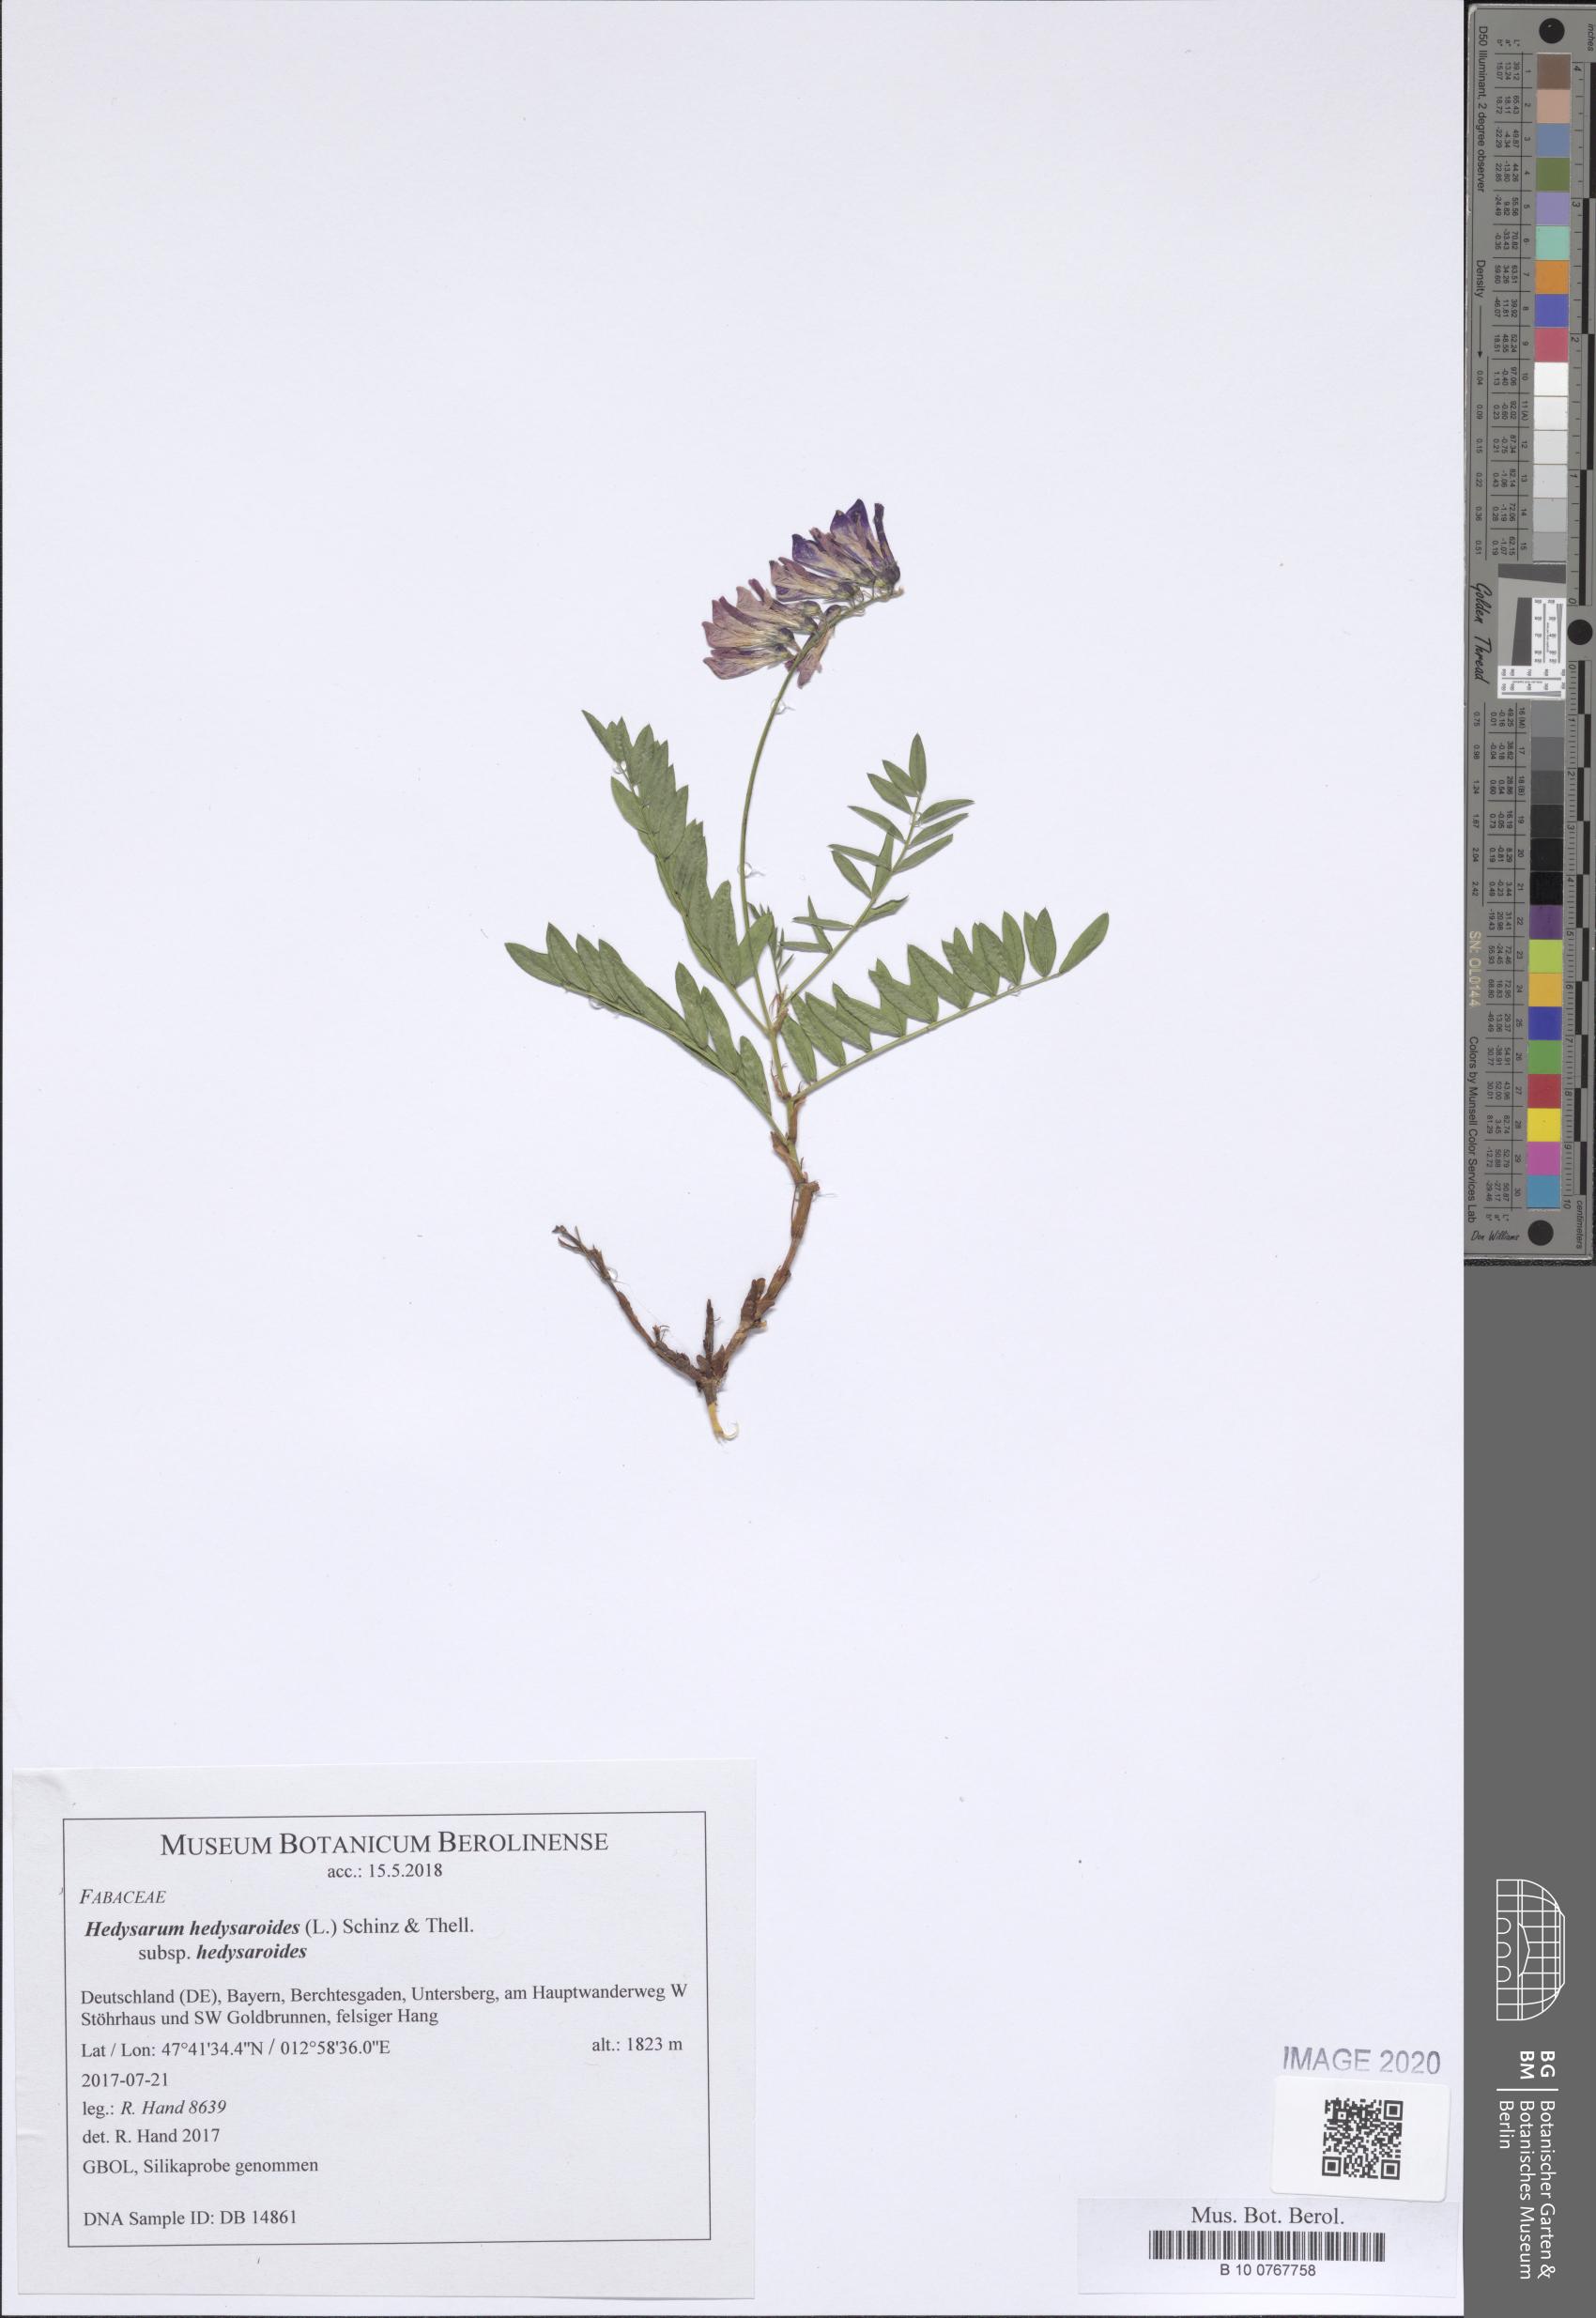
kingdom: Plantae
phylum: Tracheophyta
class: Magnoliopsida
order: Fabales
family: Fabaceae
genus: Hedysarum
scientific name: Hedysarum hedysaroides
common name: Alpine french-honeysuckle
